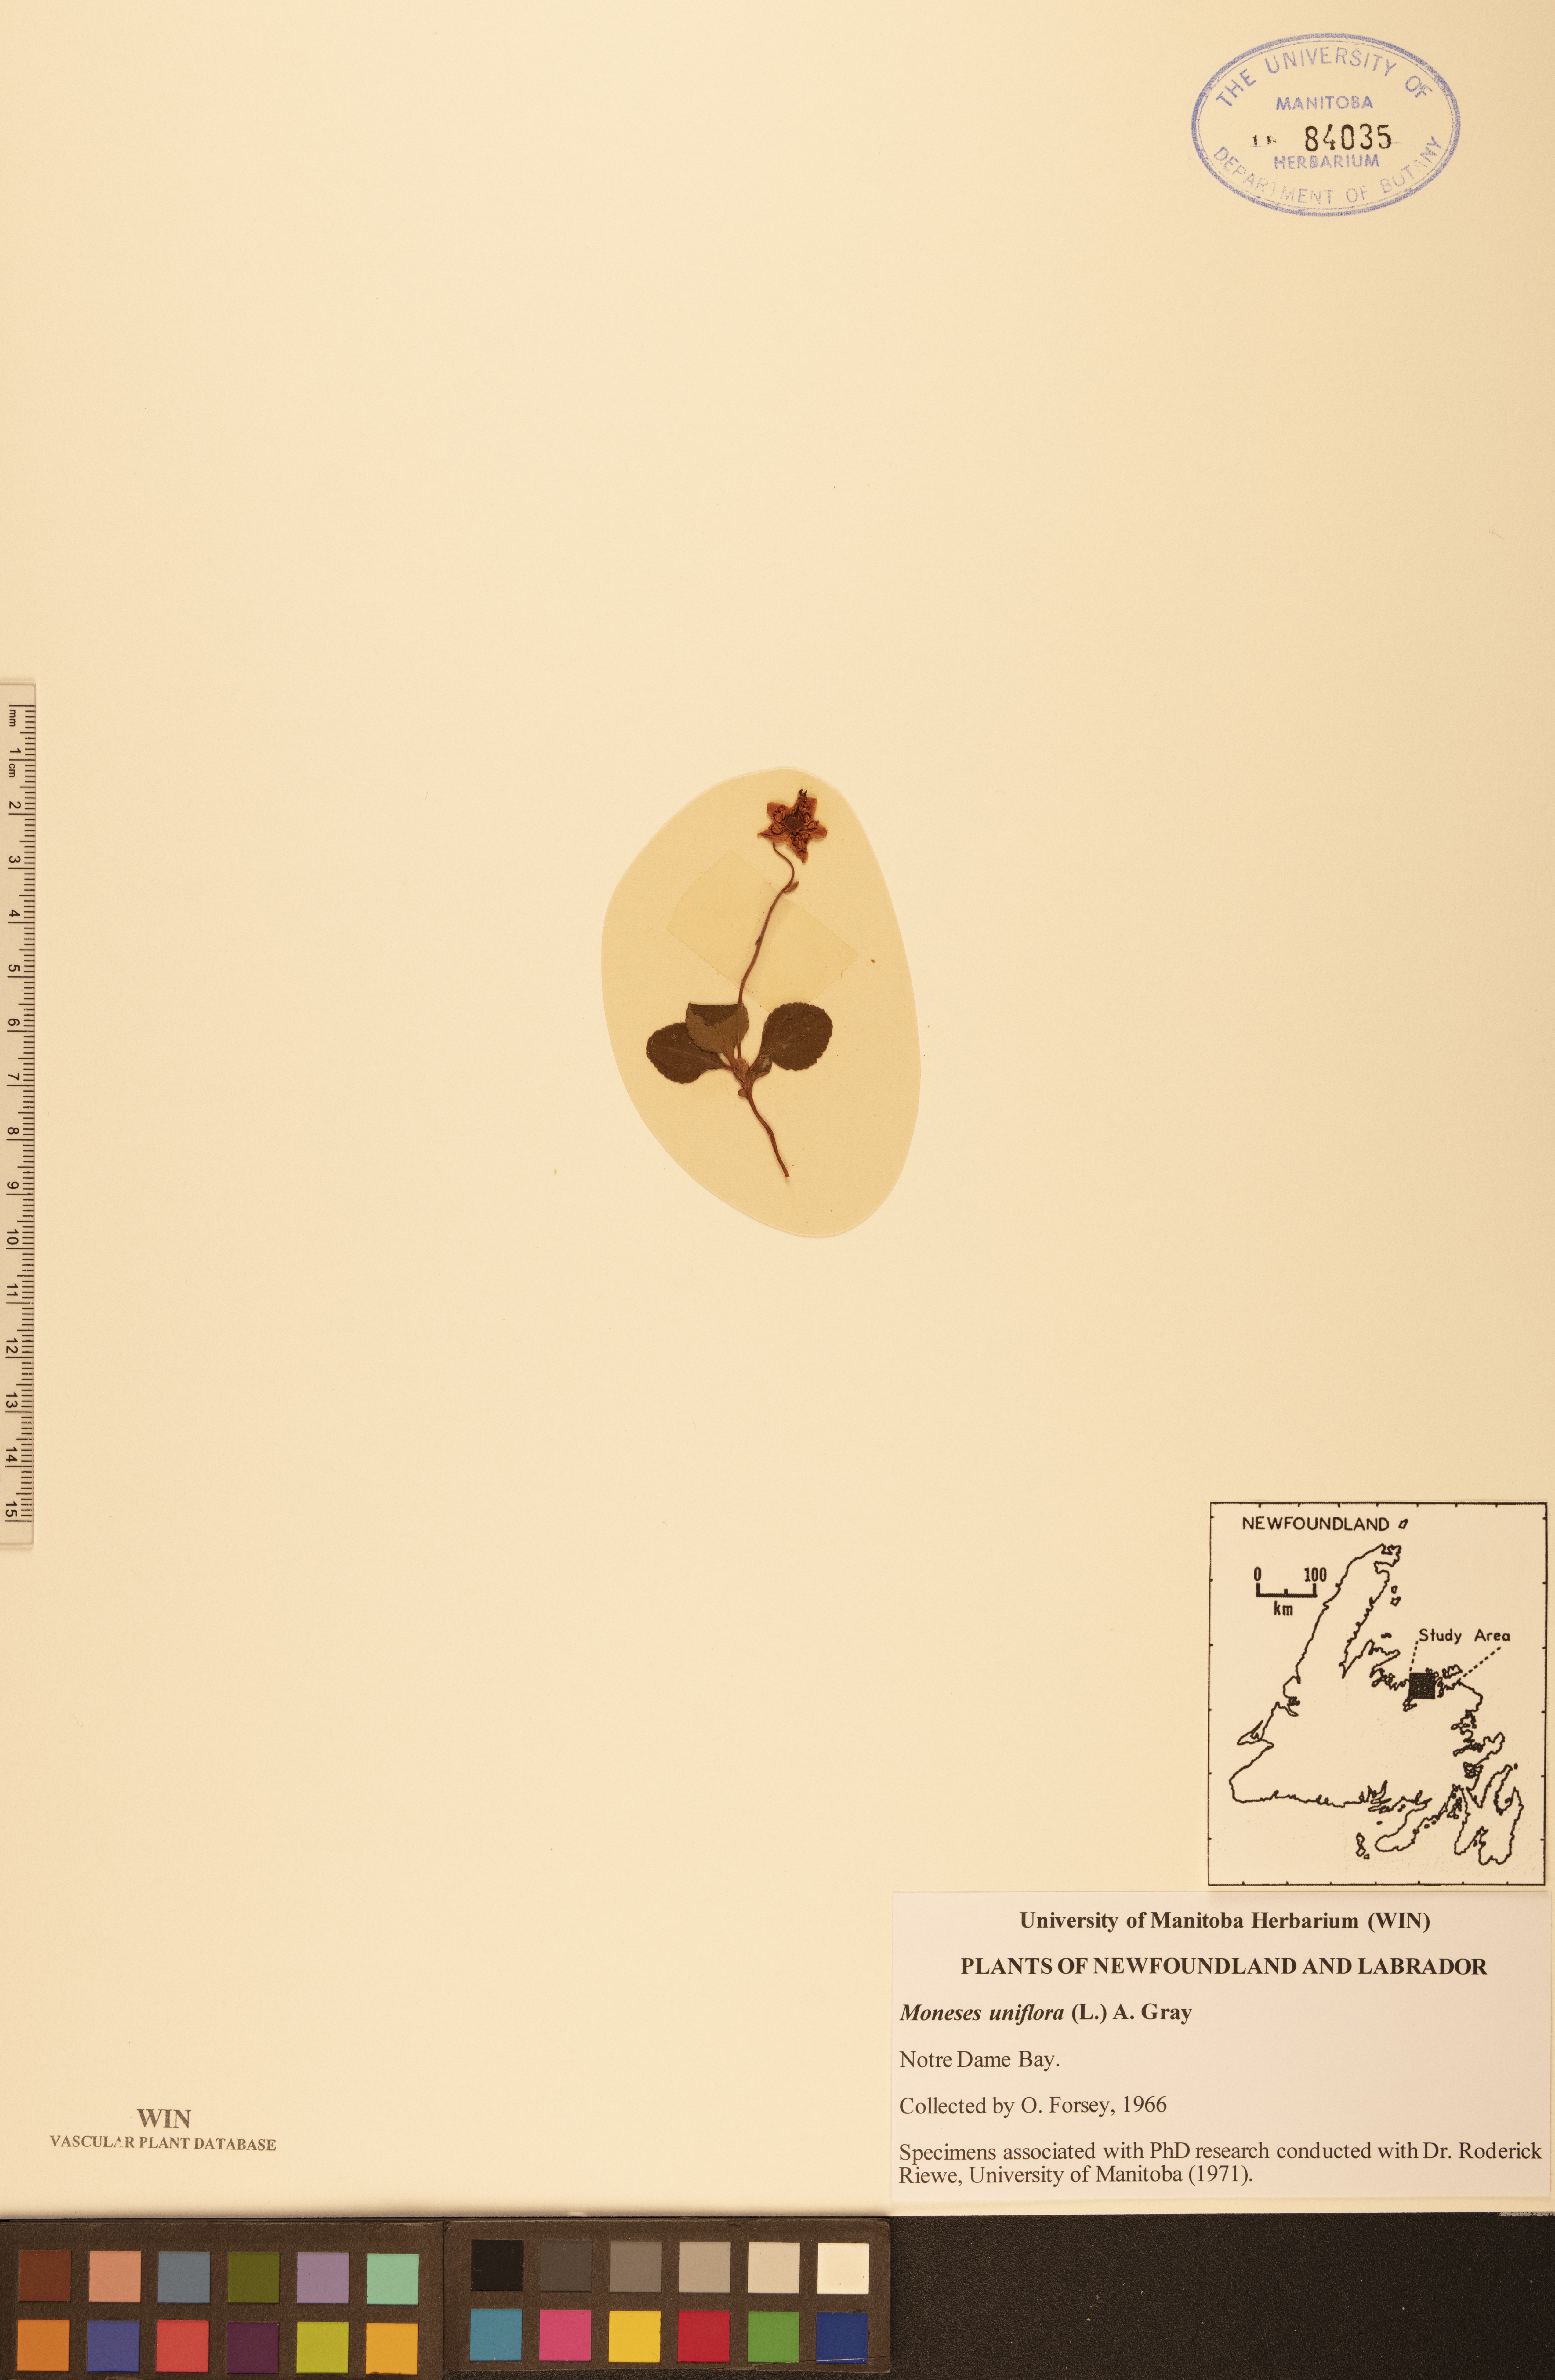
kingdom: Plantae
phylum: Tracheophyta
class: Magnoliopsida
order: Ericales
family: Ericaceae
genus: Moneses
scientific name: Moneses uniflora
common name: One-flowered wintergreen
